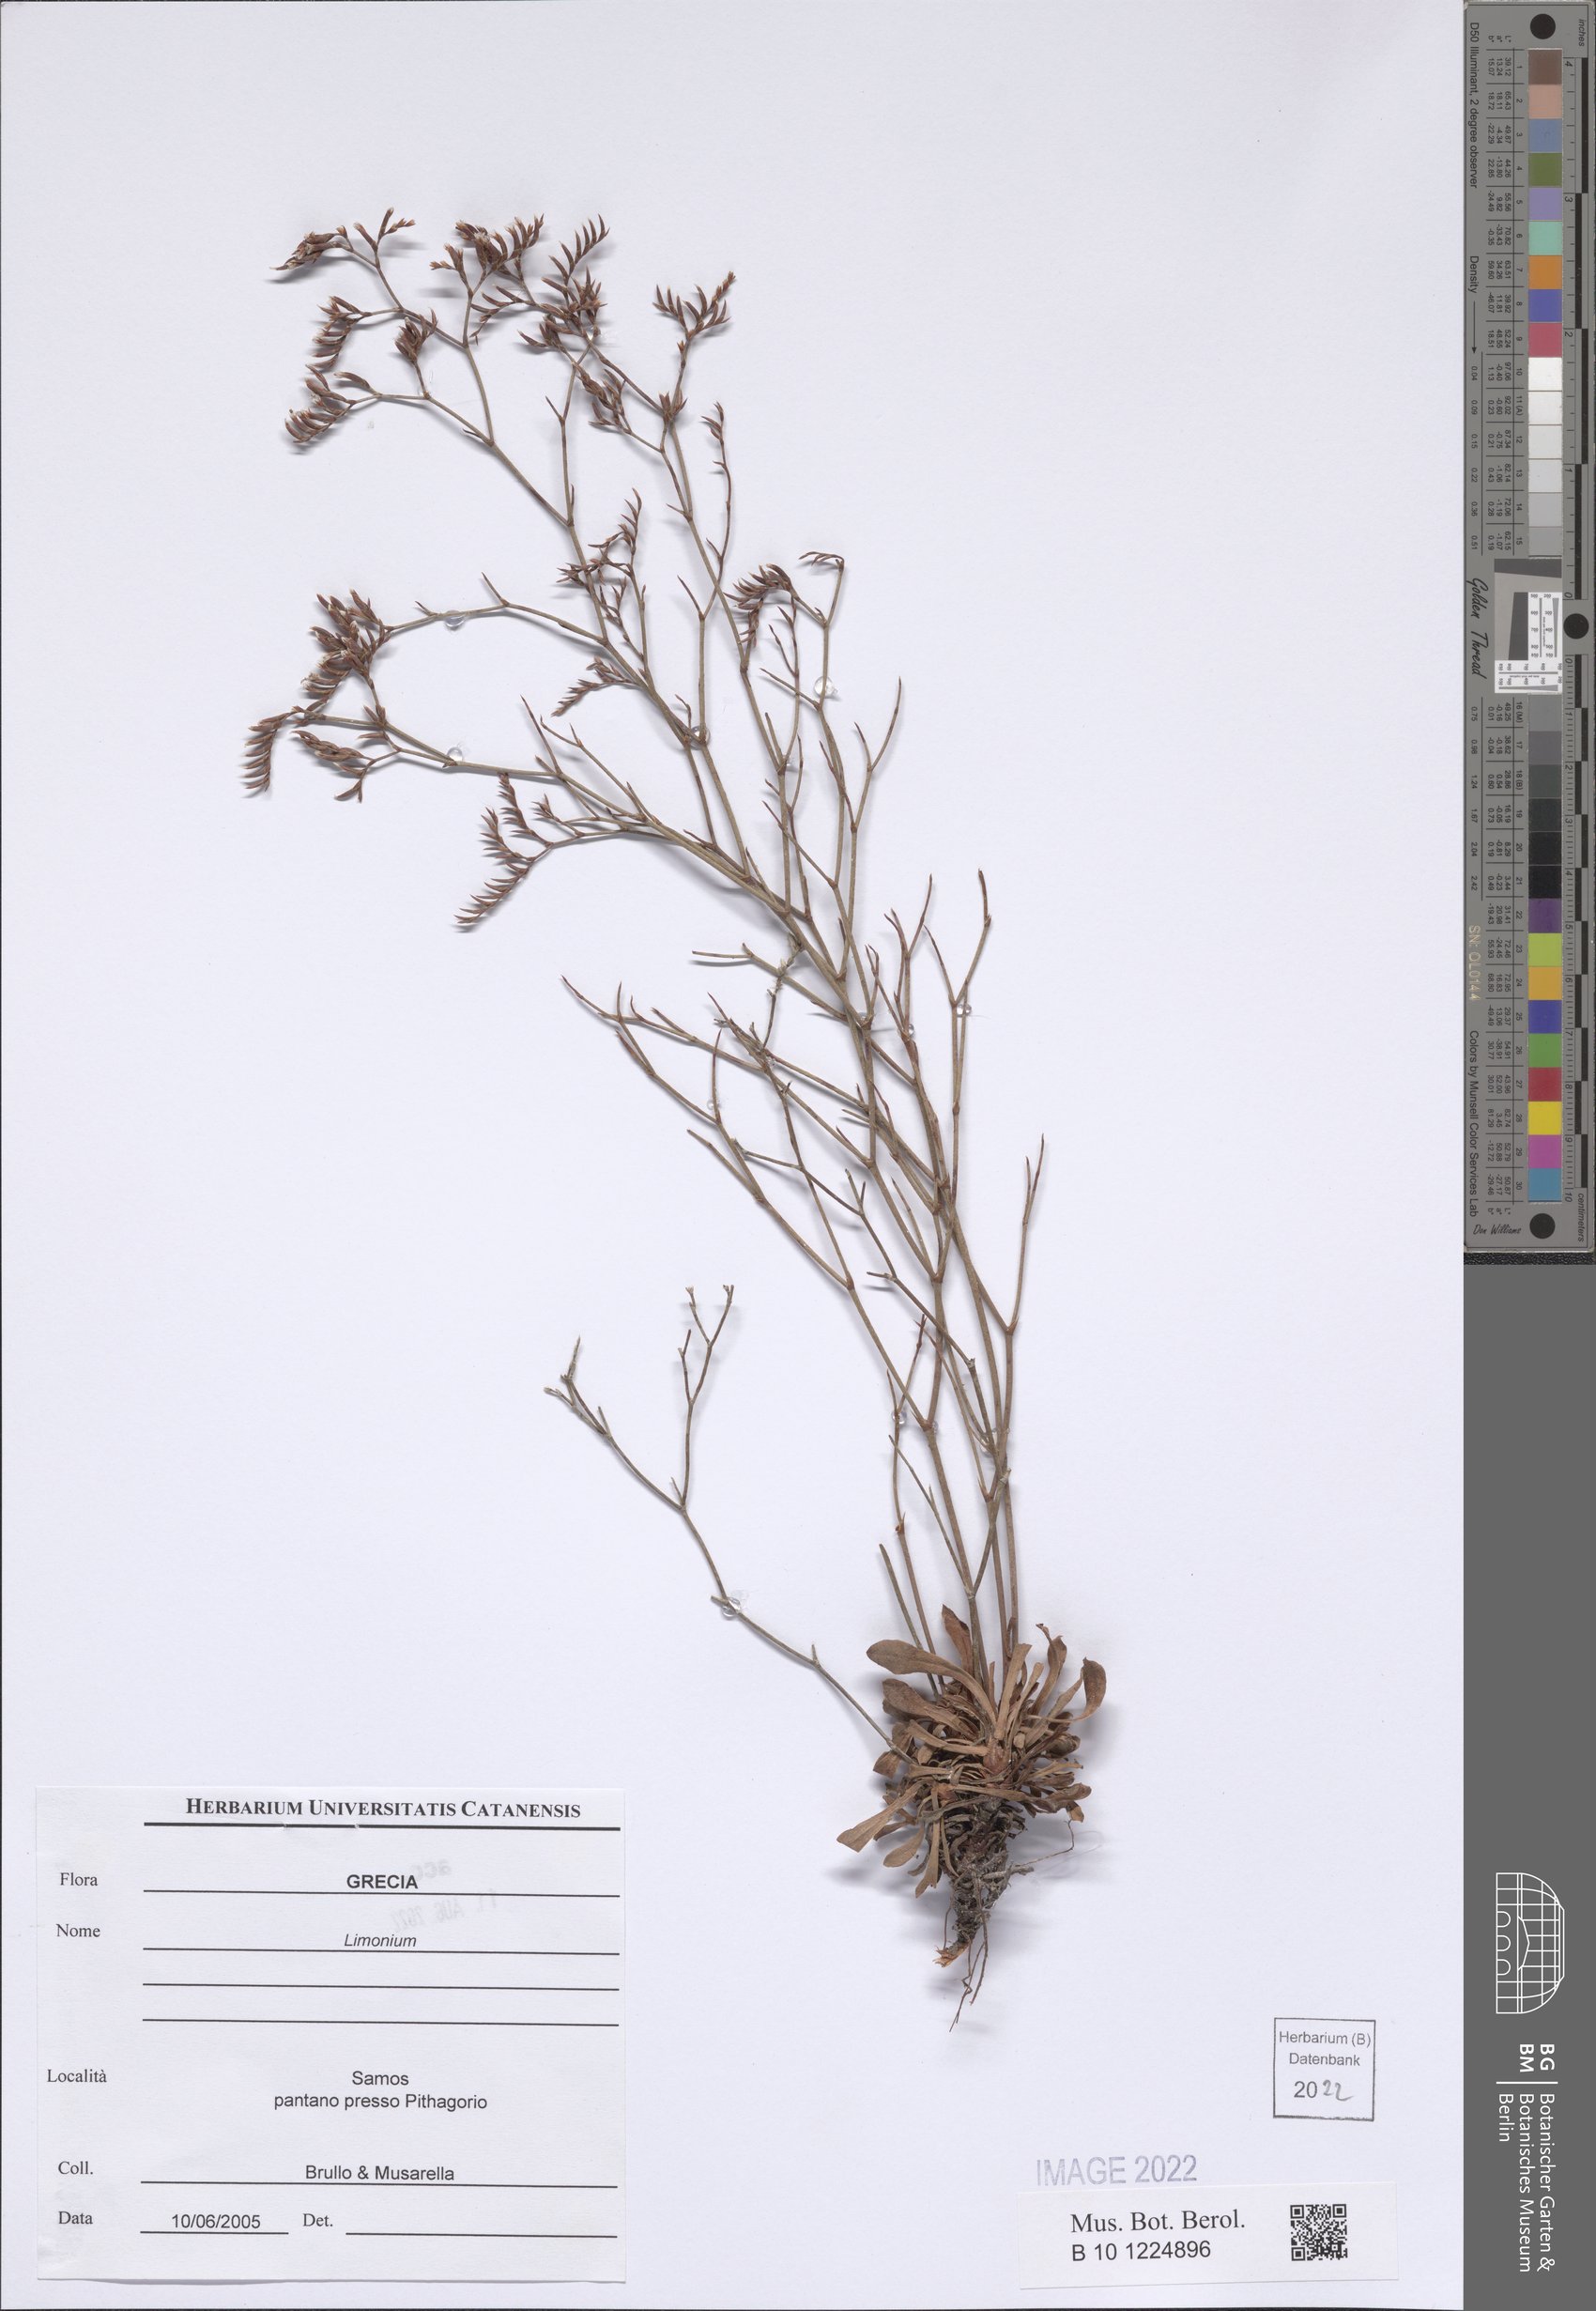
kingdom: Plantae
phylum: Tracheophyta
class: Magnoliopsida
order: Caryophyllales
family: Plumbaginaceae
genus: Limonium
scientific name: Limonium
